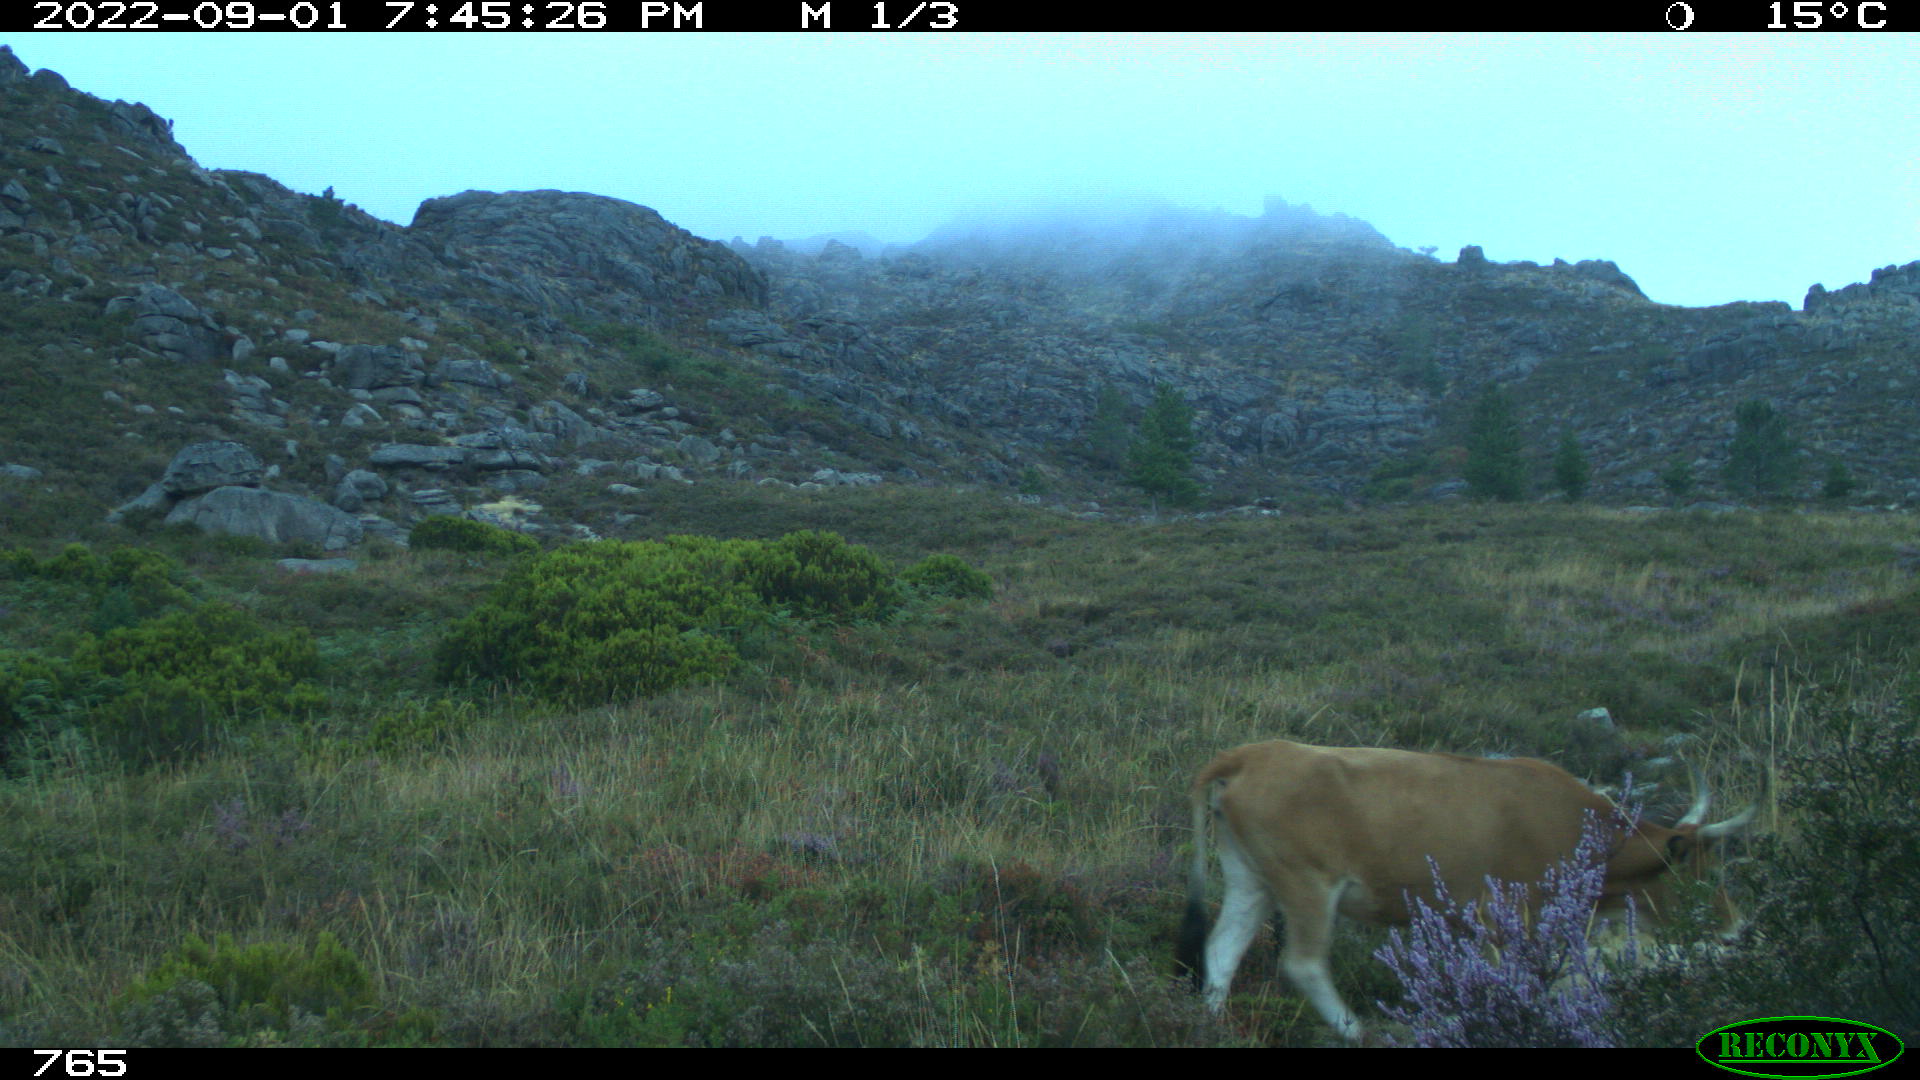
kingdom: Animalia
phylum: Chordata
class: Mammalia
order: Artiodactyla
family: Bovidae
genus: Bos
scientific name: Bos taurus
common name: Domesticated cattle
